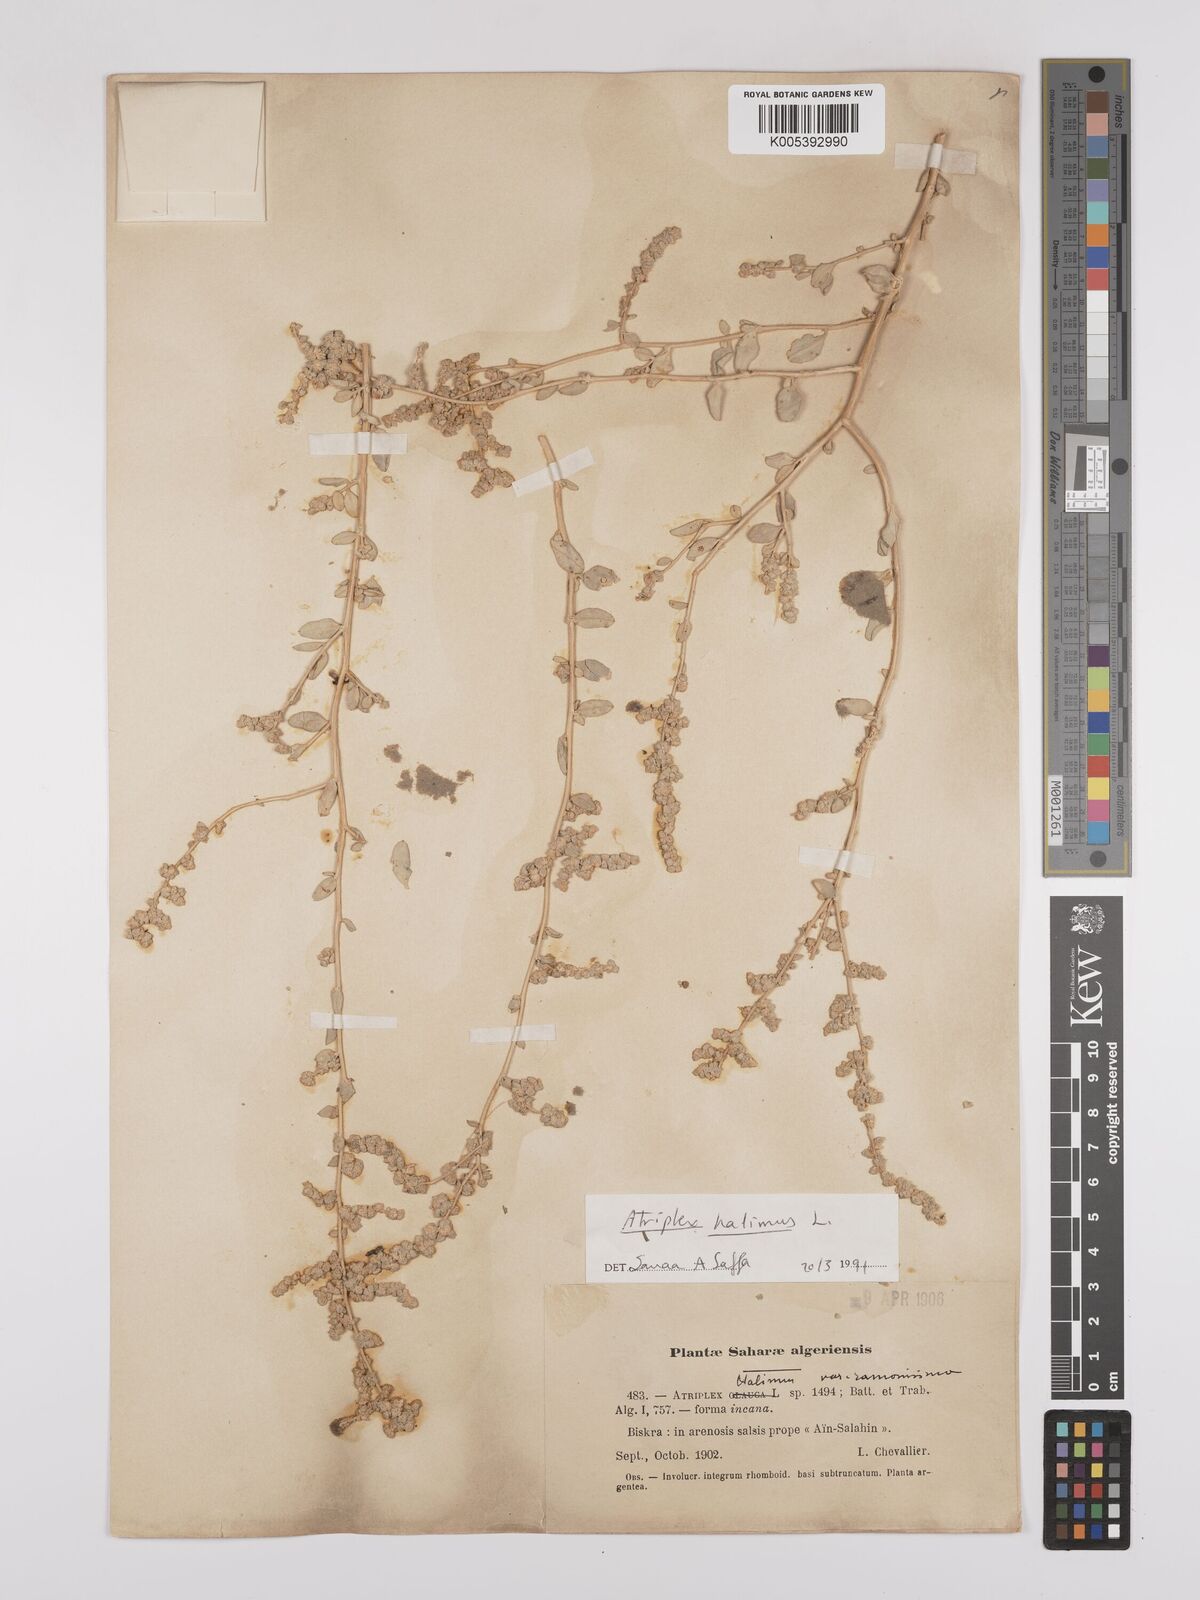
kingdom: Plantae
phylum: Tracheophyta
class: Magnoliopsida
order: Caryophyllales
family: Amaranthaceae
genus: Atriplex
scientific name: Atriplex
